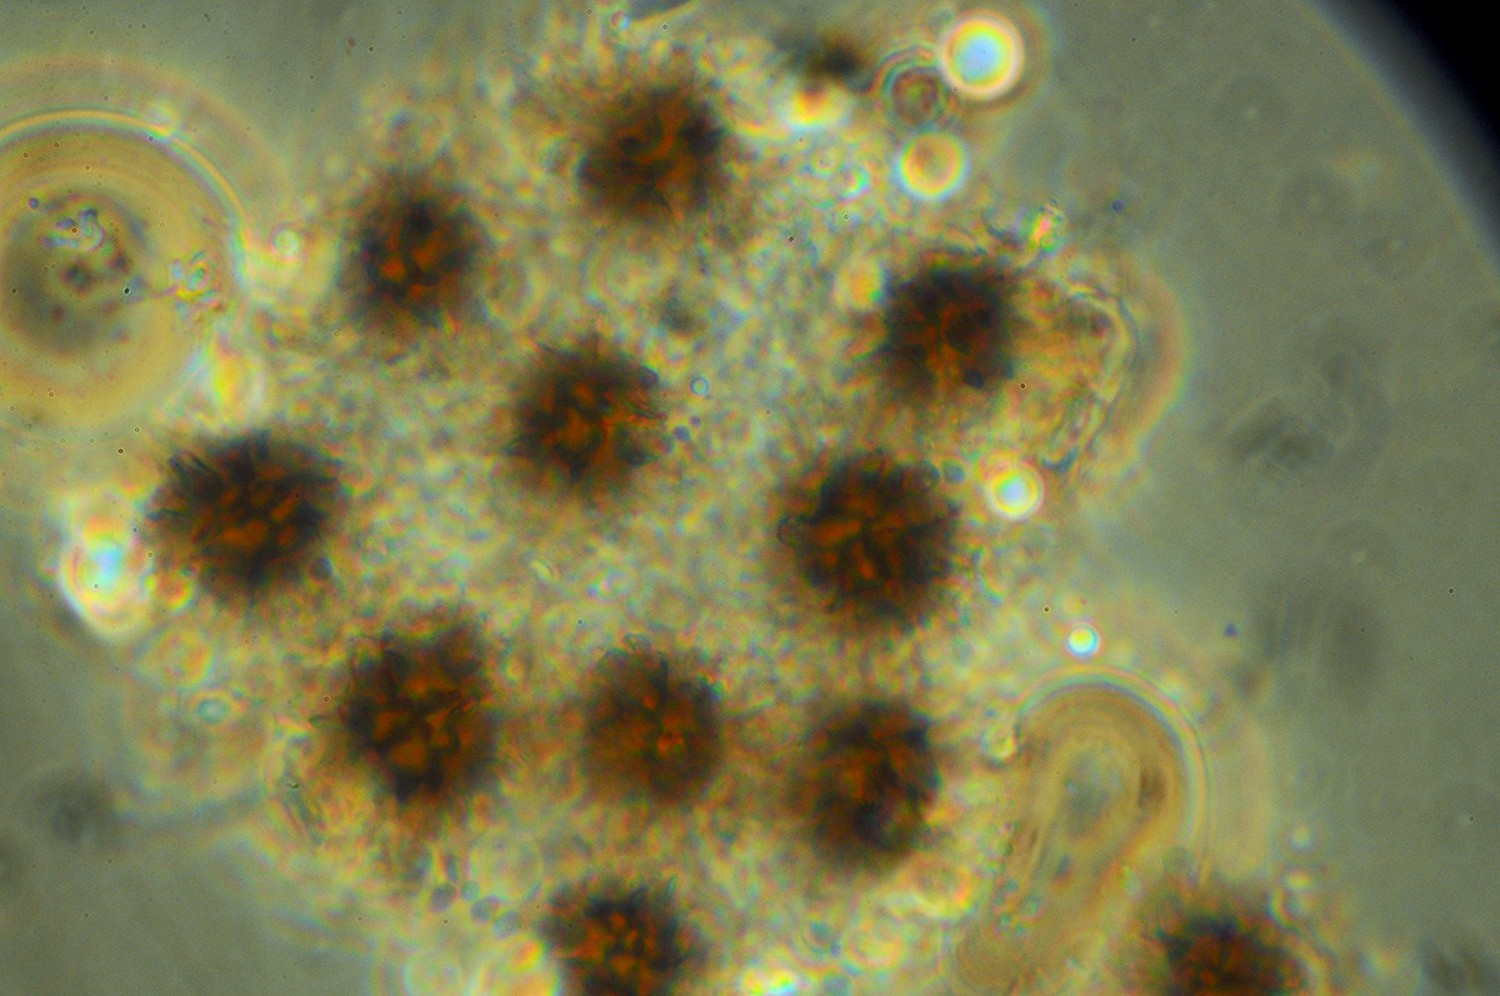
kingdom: Fungi
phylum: Basidiomycota
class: Agaricomycetes
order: Boletales
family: Sclerodermataceae
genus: Scleroderma
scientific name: Scleroderma bovista
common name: bovist-bruskbold
